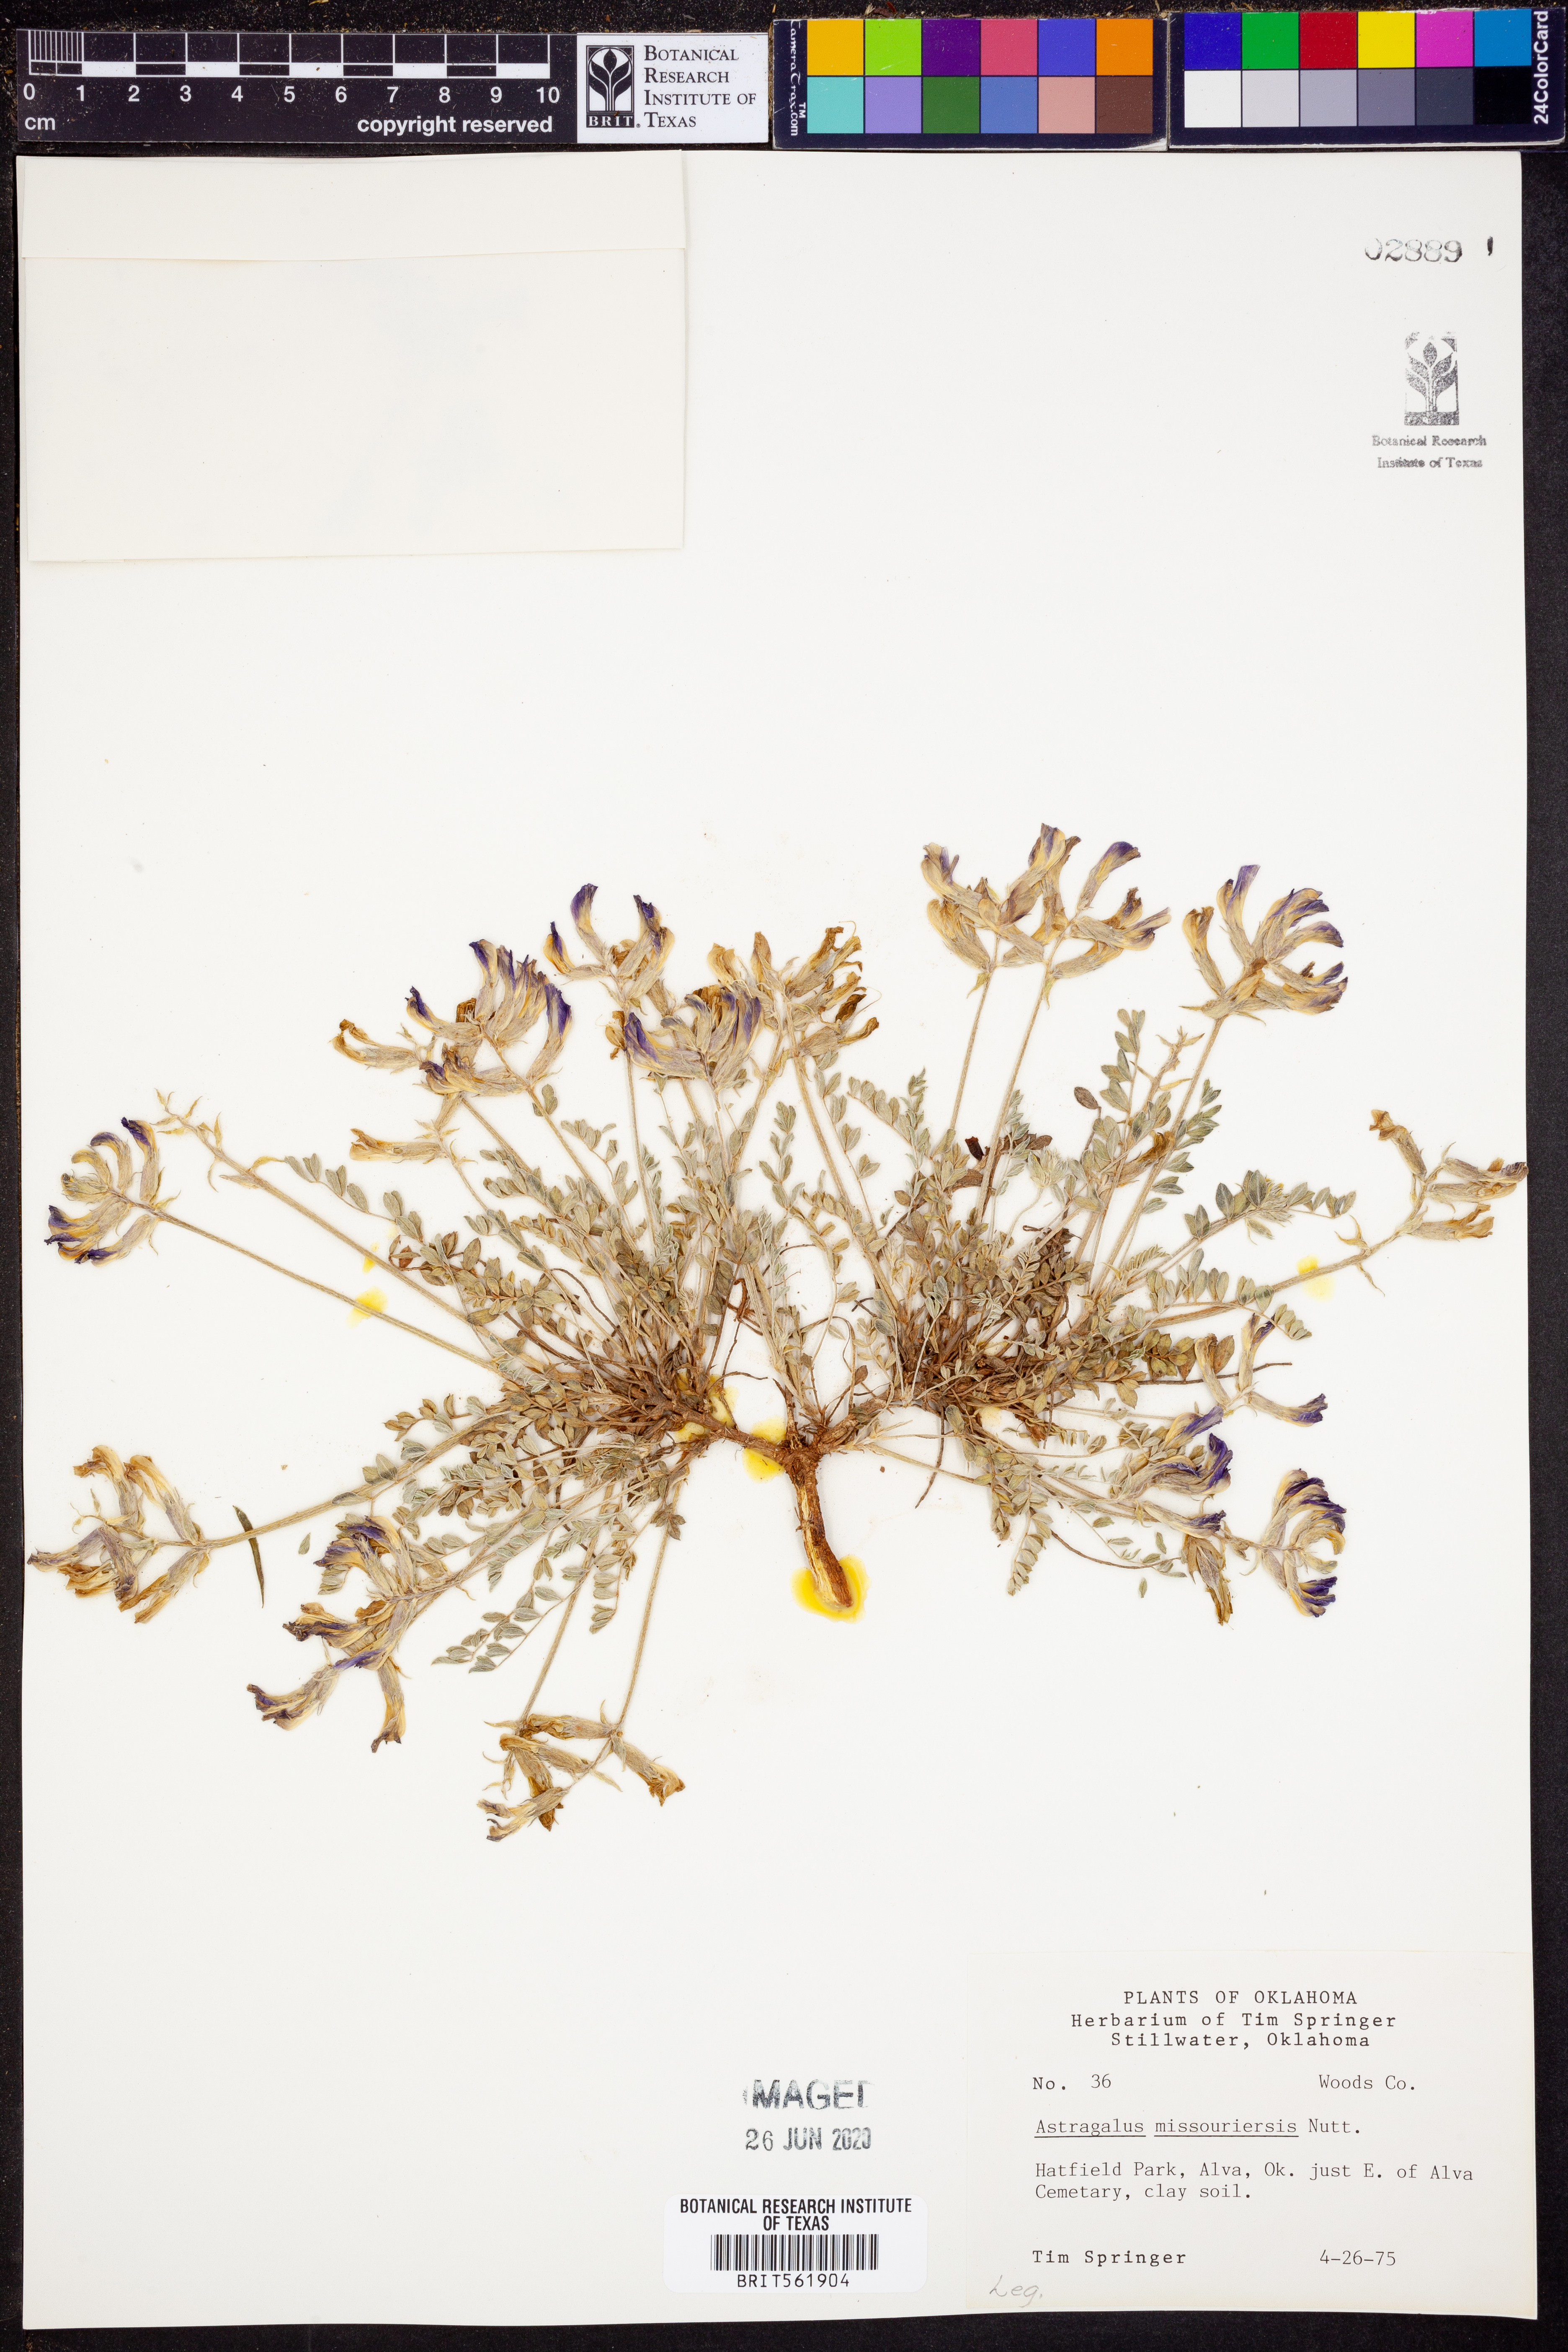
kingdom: Plantae
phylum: Tracheophyta
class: Magnoliopsida
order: Fabales
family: Fabaceae
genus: Astragalus
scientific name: Astragalus missouriensis
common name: Missouri milk-vetch
